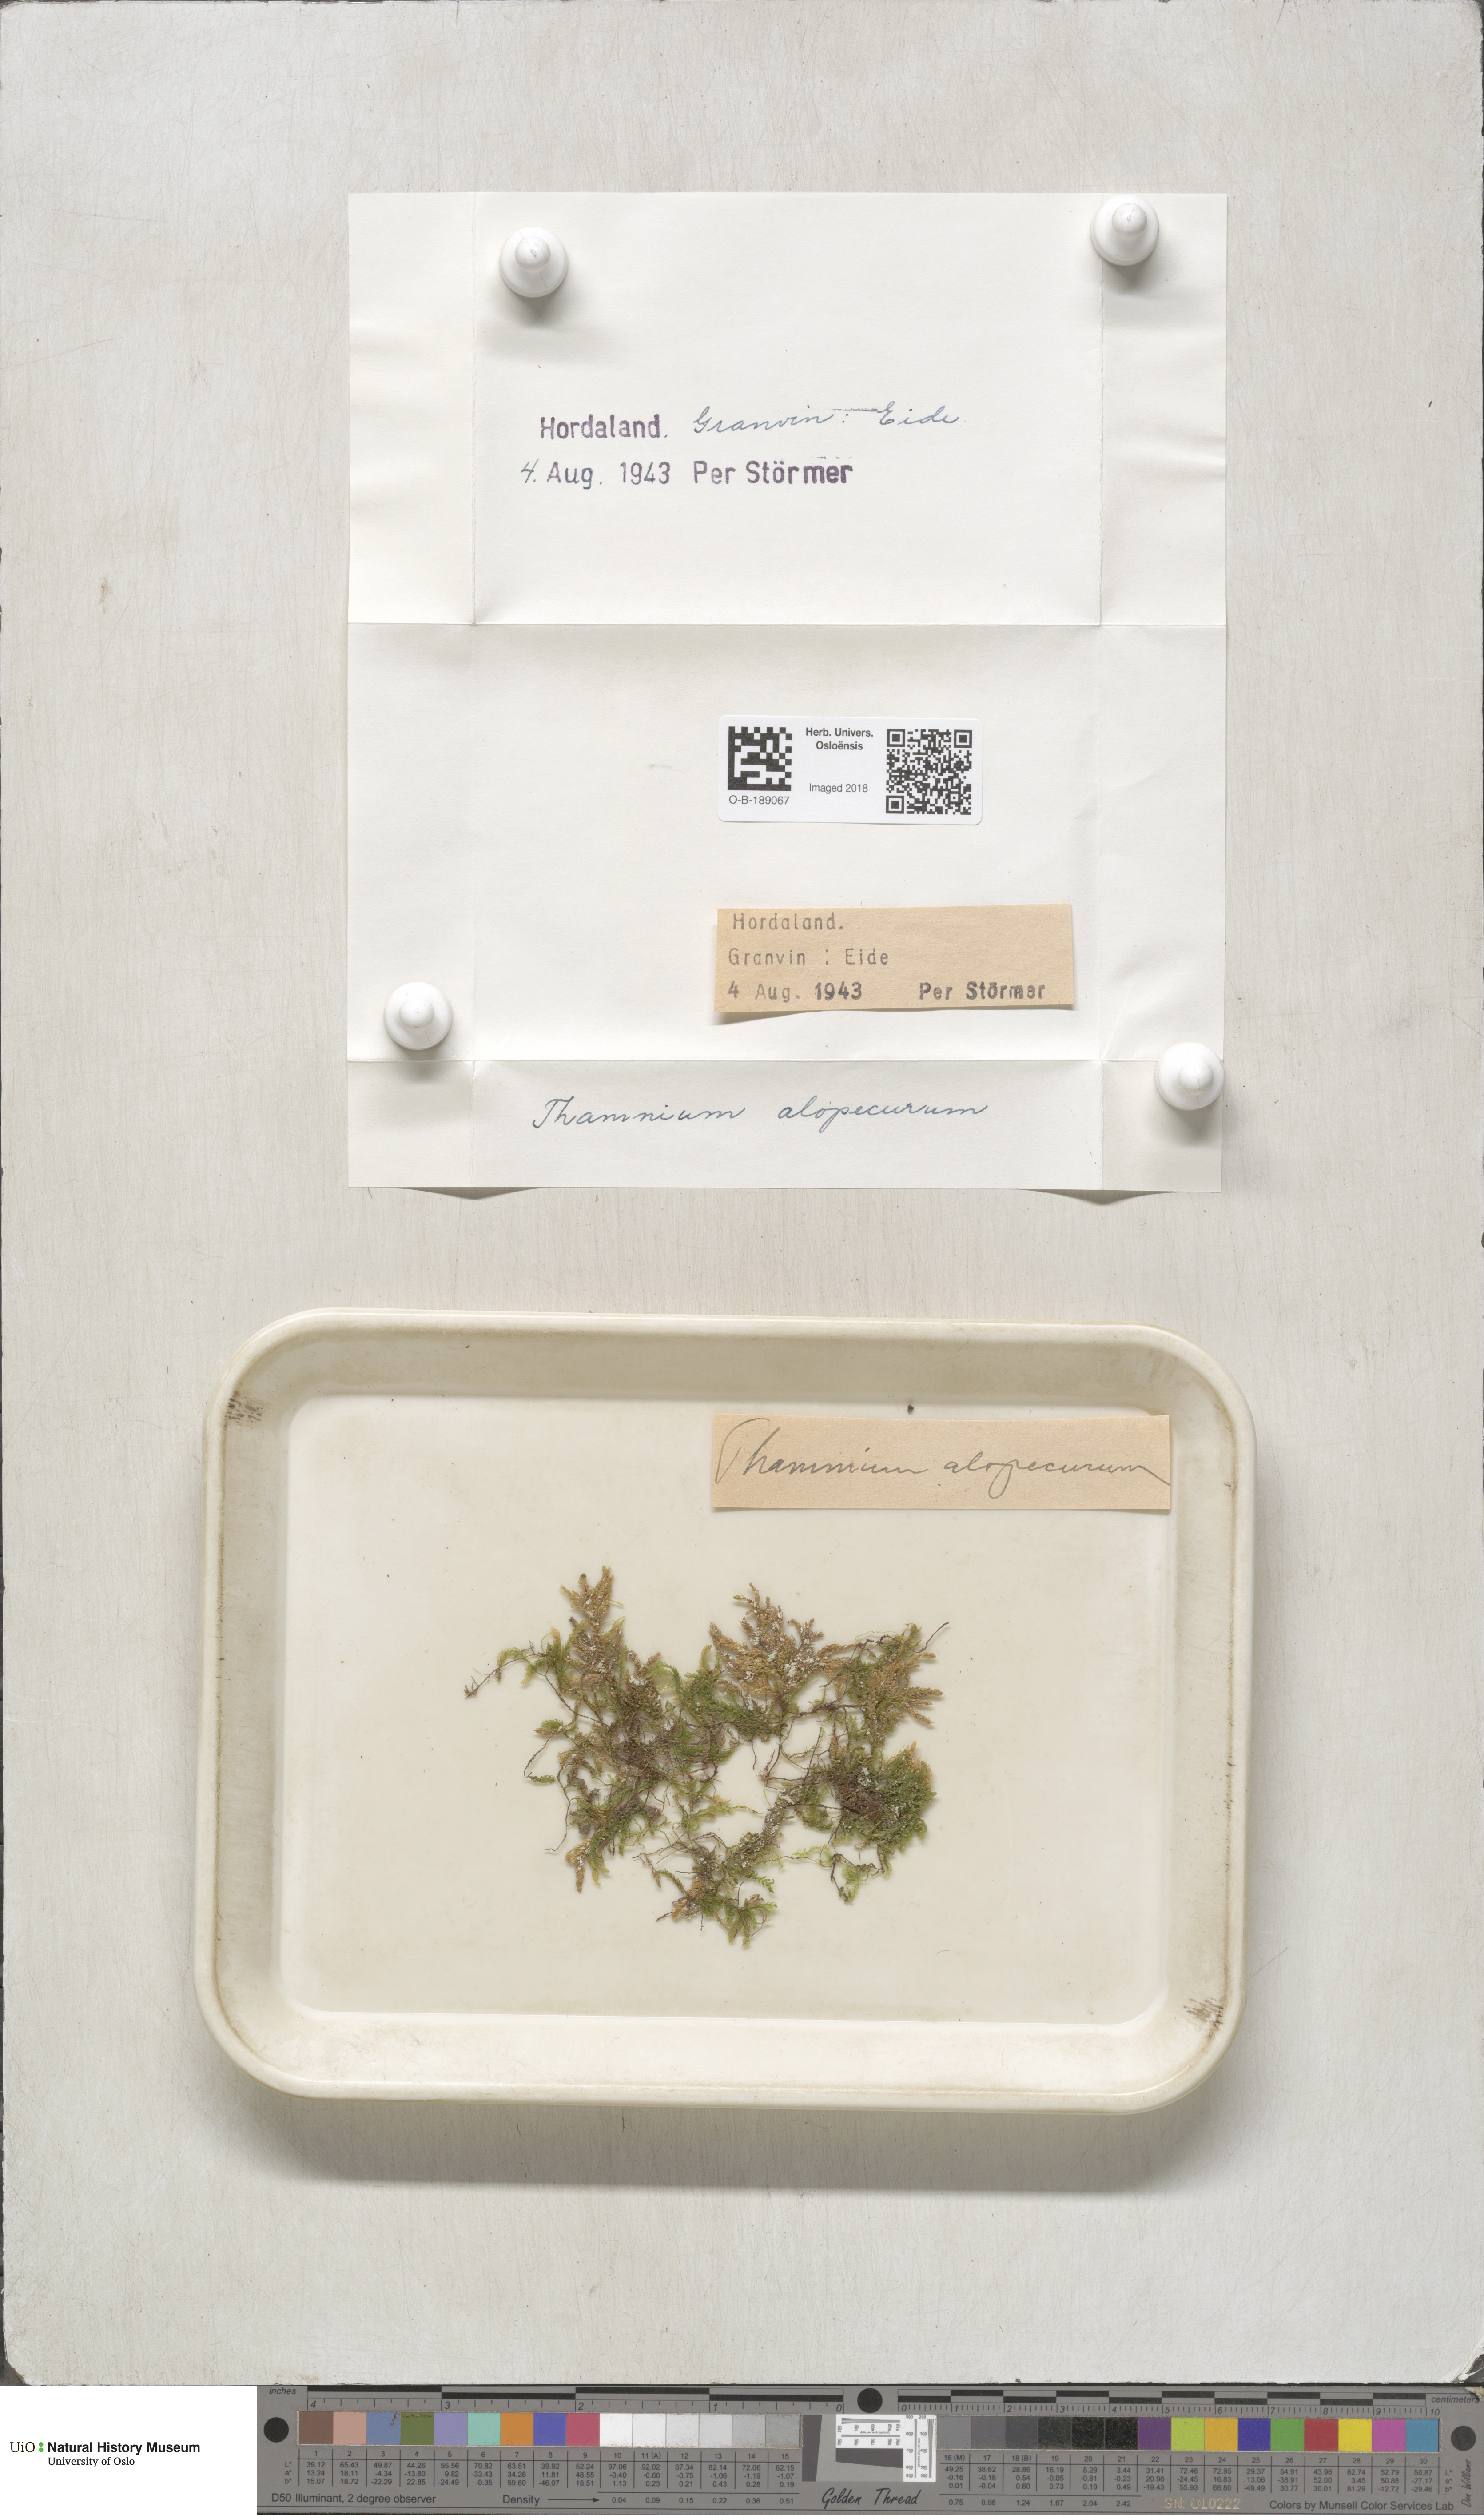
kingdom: Plantae
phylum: Bryophyta
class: Bryopsida
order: Hypnales
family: Neckeraceae
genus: Thamnobryum
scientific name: Thamnobryum alopecurum
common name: Fox-tail feather-moss
